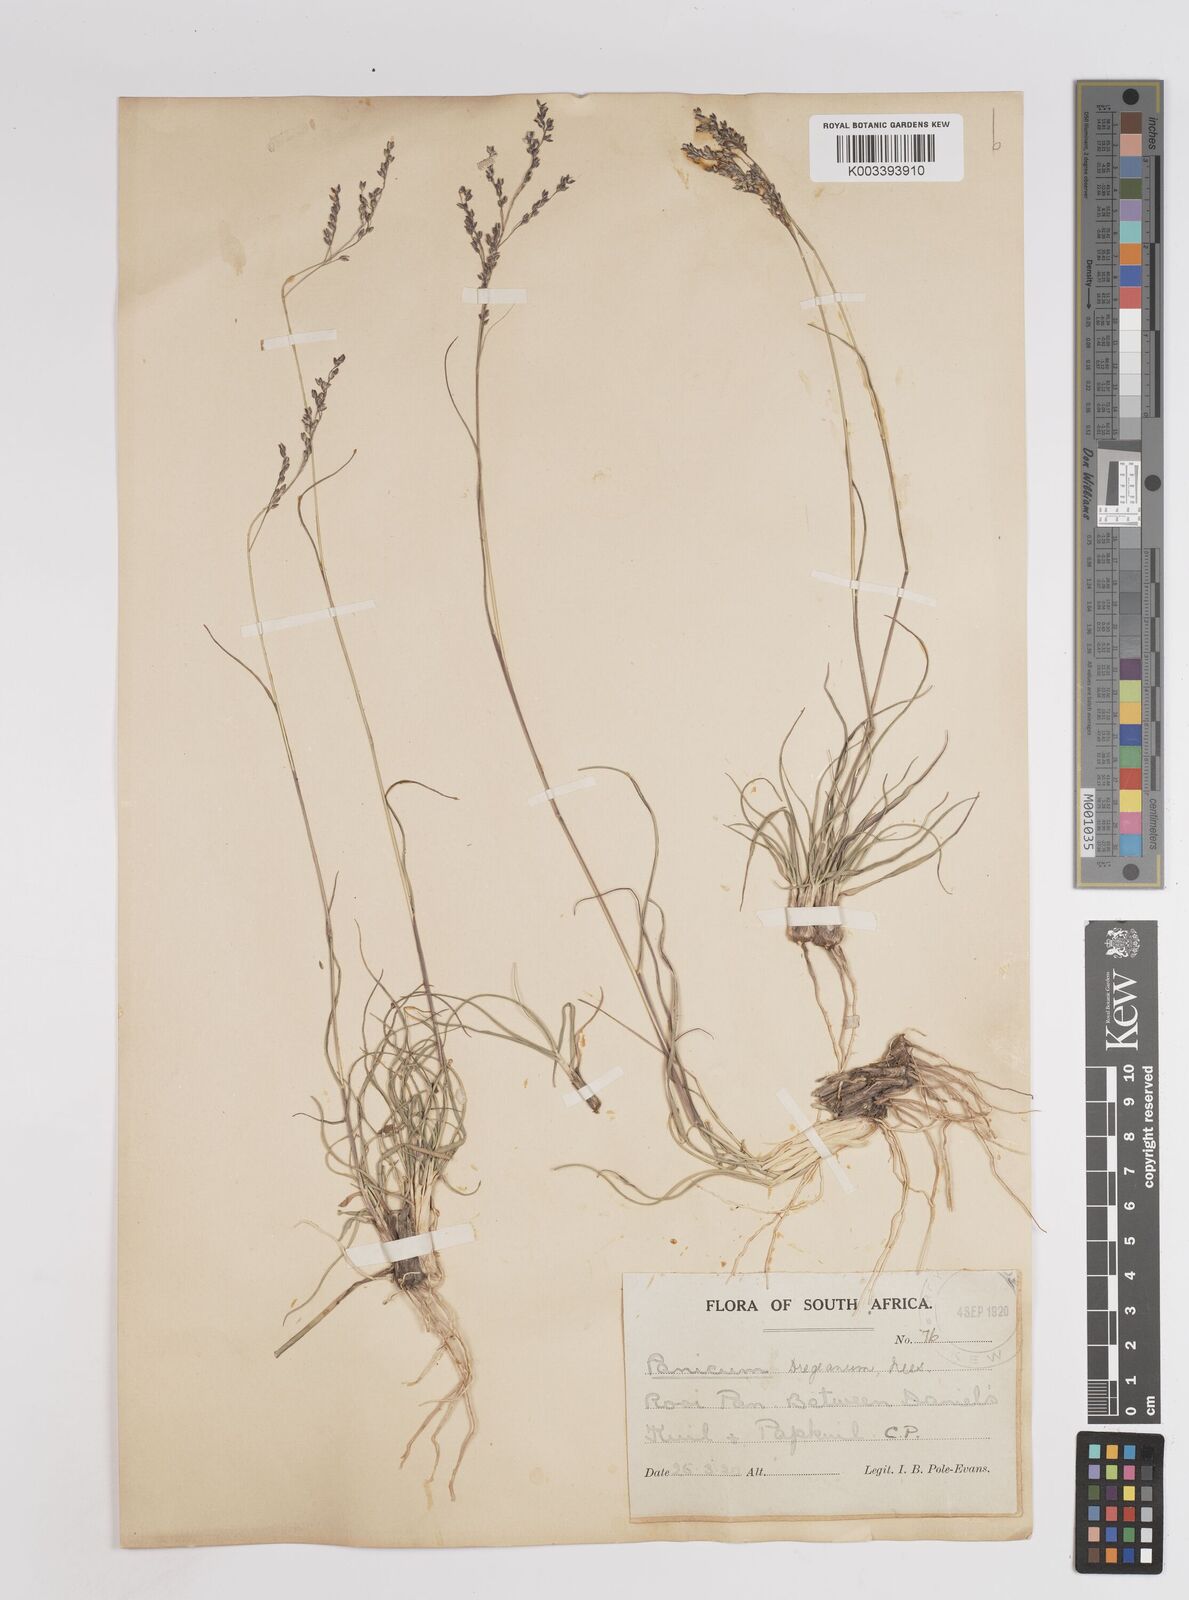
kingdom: Plantae
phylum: Tracheophyta
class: Liliopsida
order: Poales
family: Poaceae
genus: Panicum
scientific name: Panicum stapfianum
